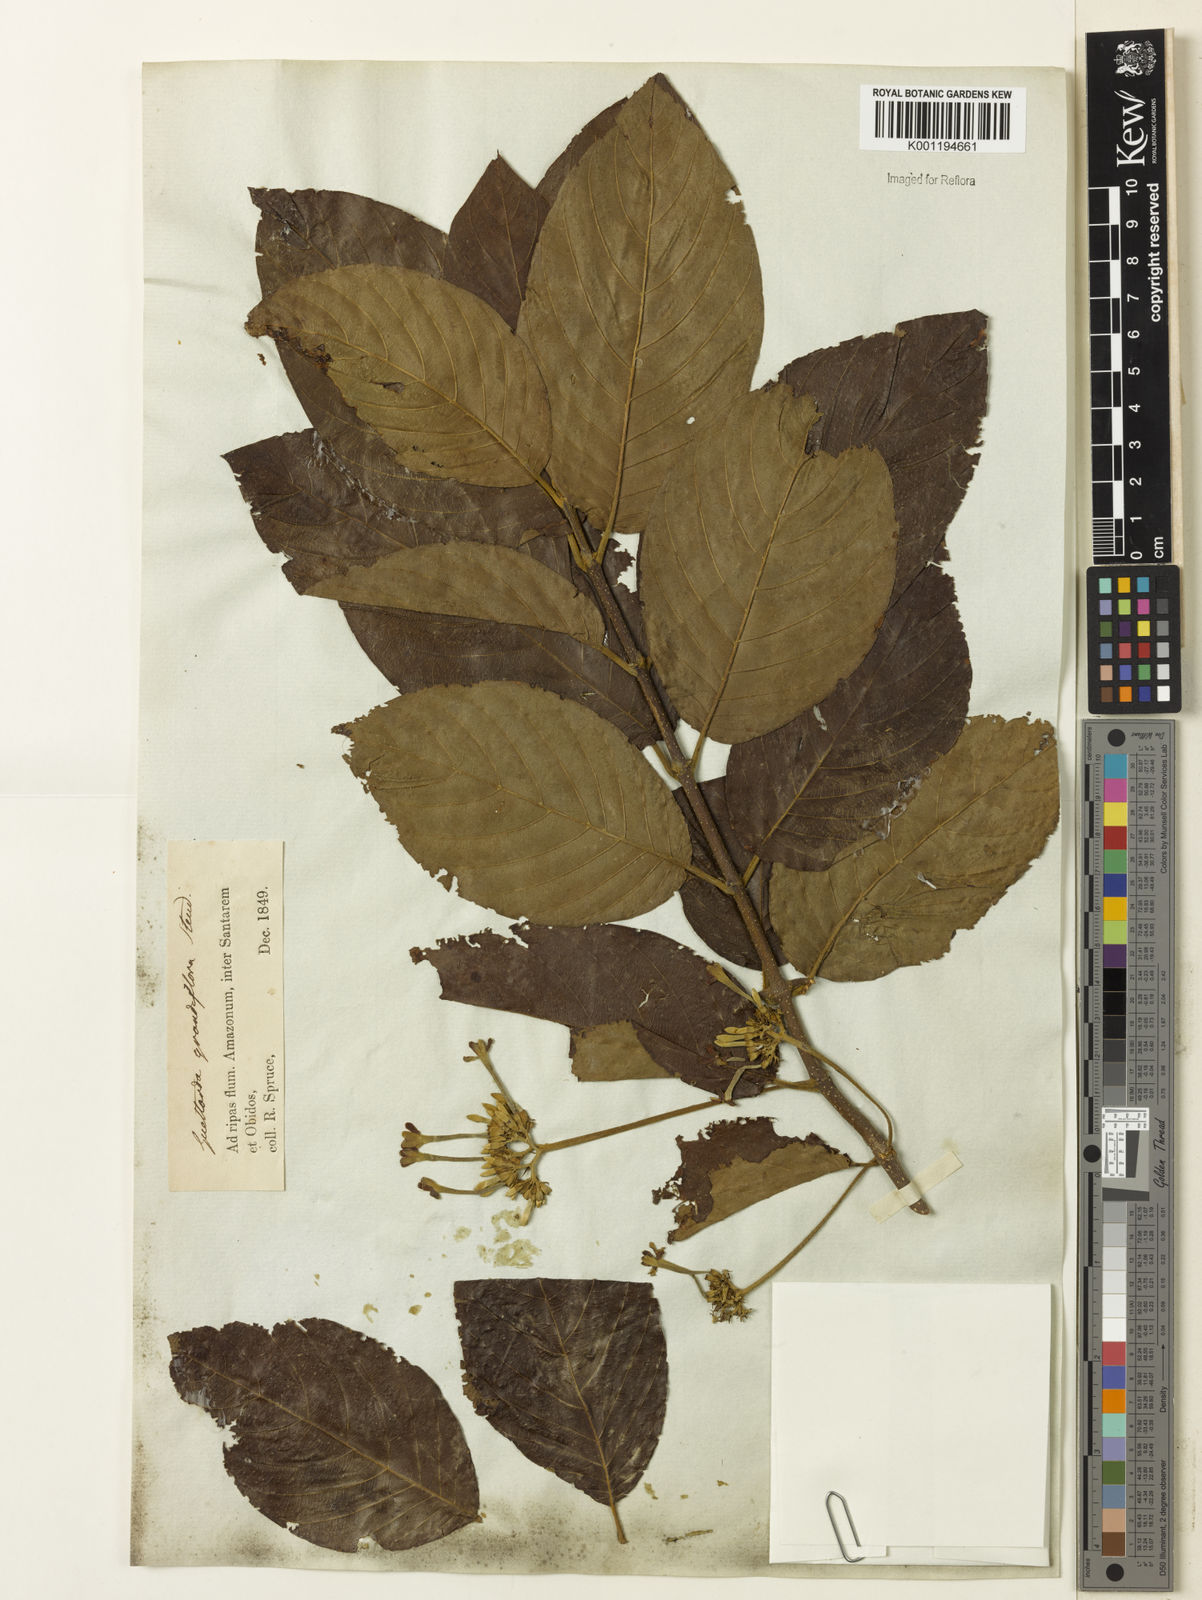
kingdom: Plantae
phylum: Tracheophyta
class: Magnoliopsida
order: Gentianales
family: Rubiaceae
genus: Guettarda
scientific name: Guettarda aromatica
